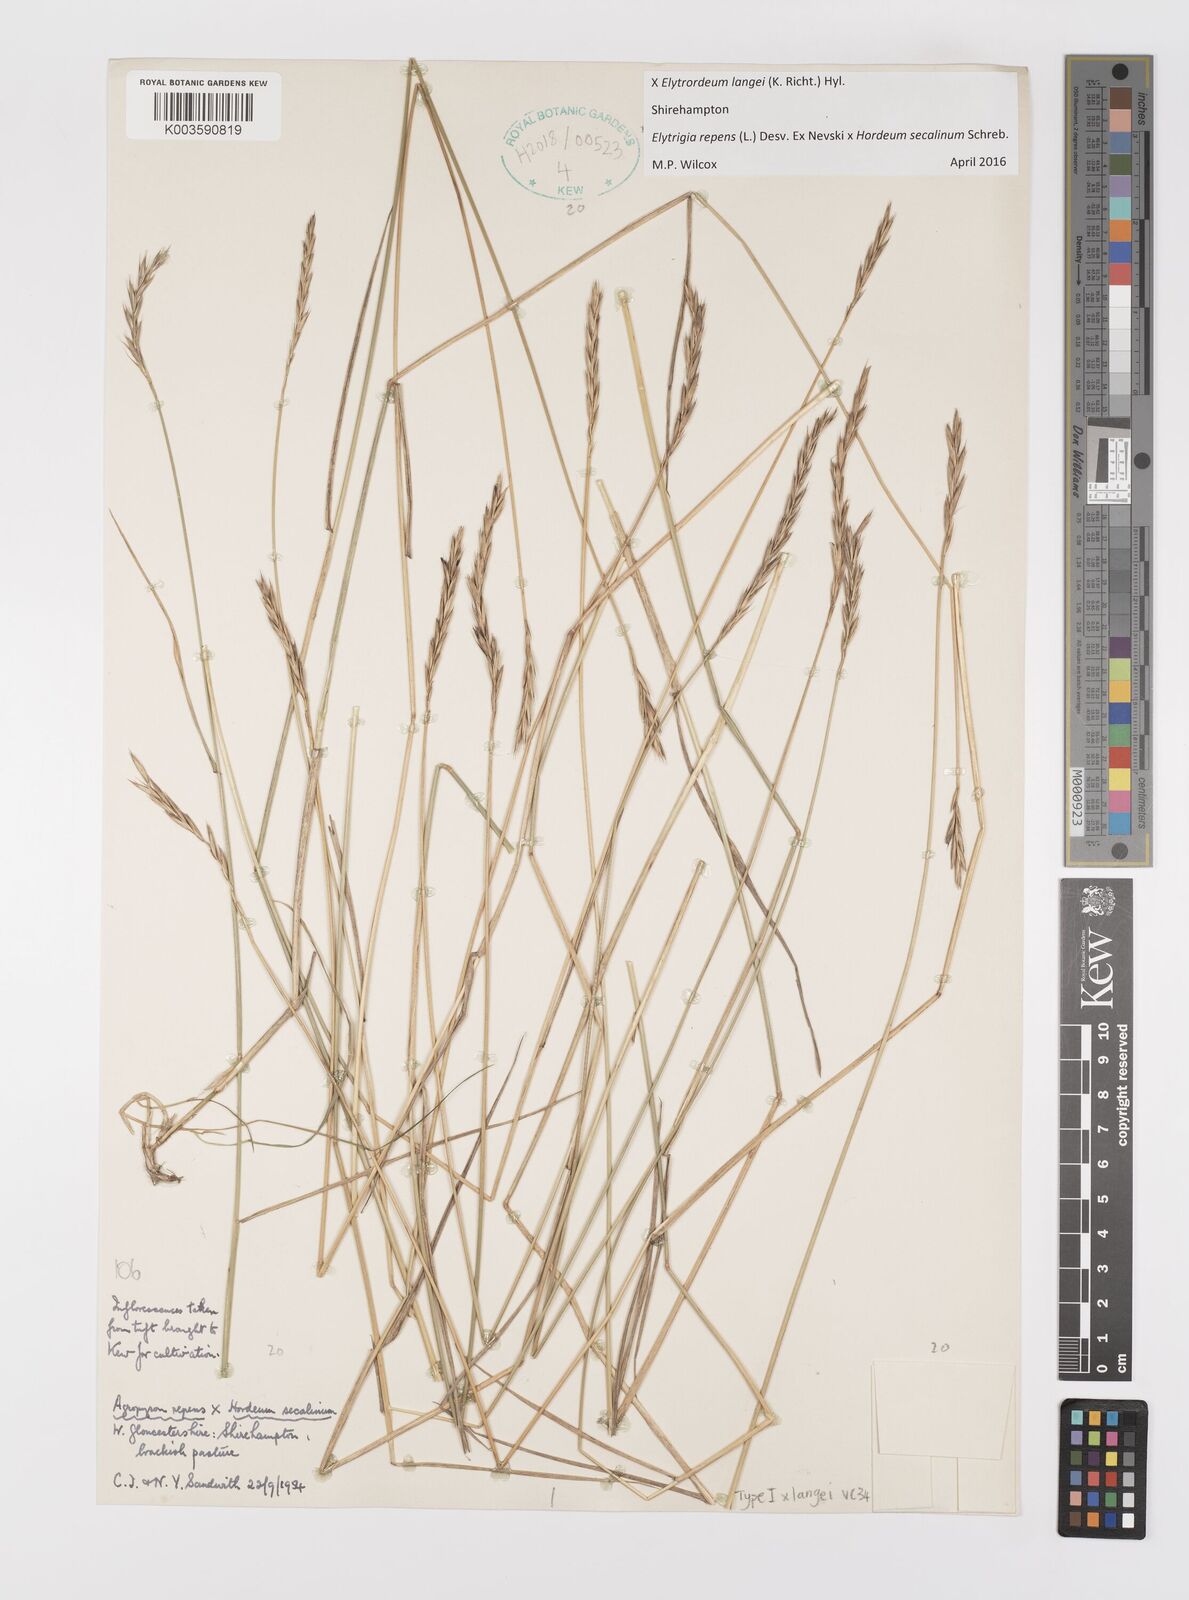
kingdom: Plantae
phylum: Tracheophyta
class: Liliopsida
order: Poales
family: Poaceae
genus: Elyhordeum
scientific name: Elyhordeum langei
